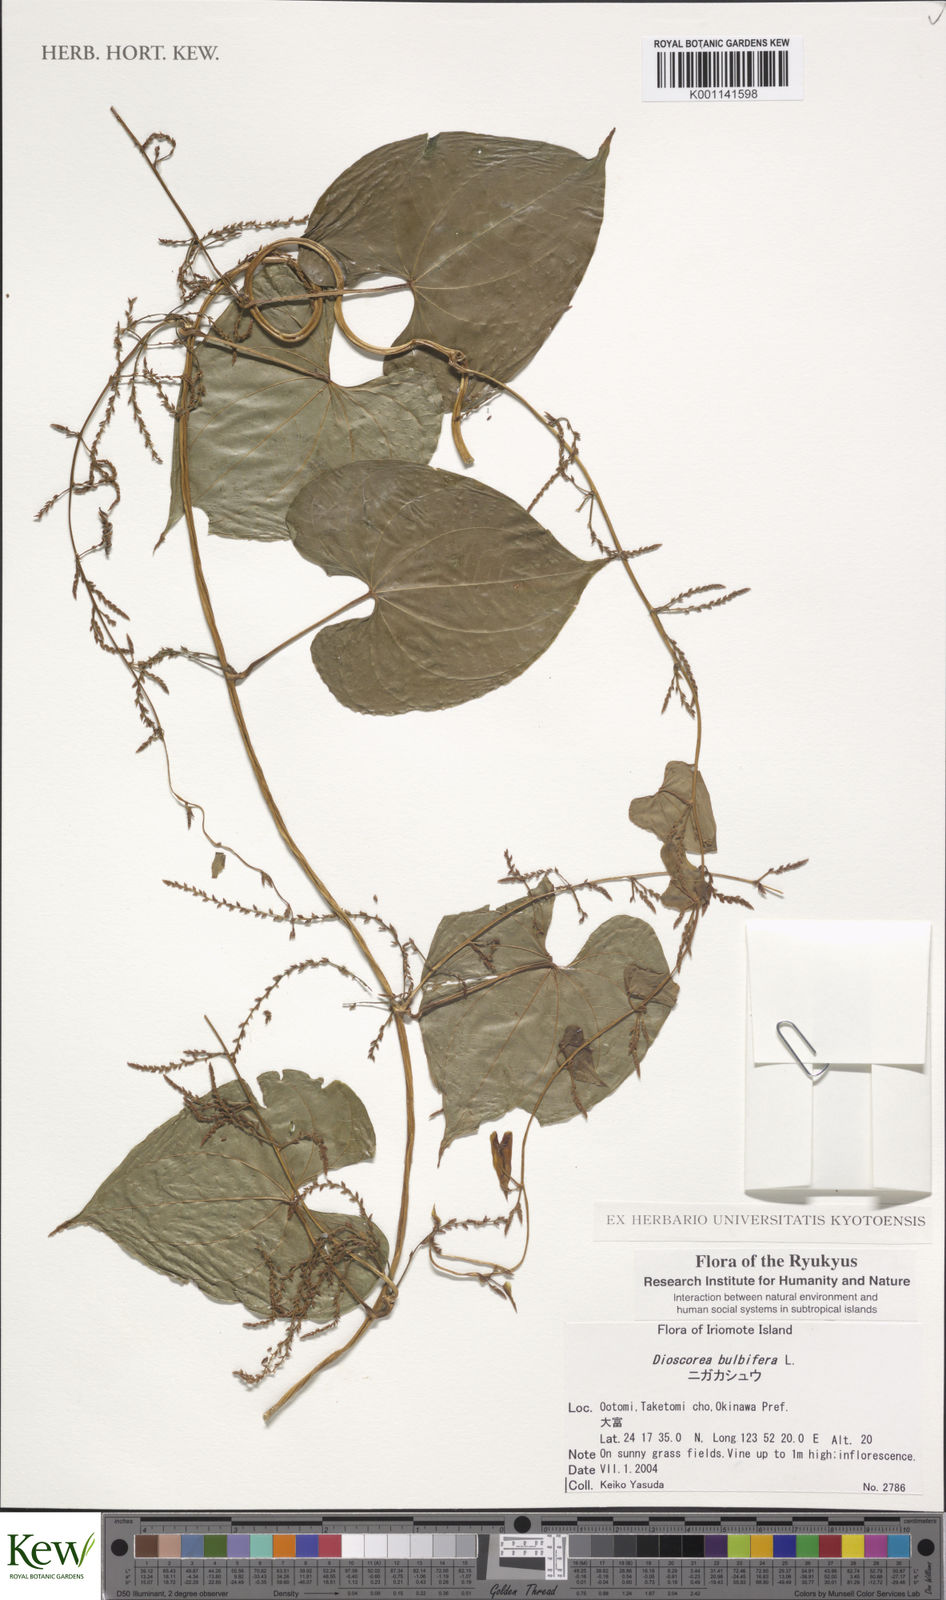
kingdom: Plantae
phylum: Tracheophyta
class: Liliopsida
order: Dioscoreales
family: Dioscoreaceae
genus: Dioscorea
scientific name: Dioscorea bulbifera
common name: Air yam
